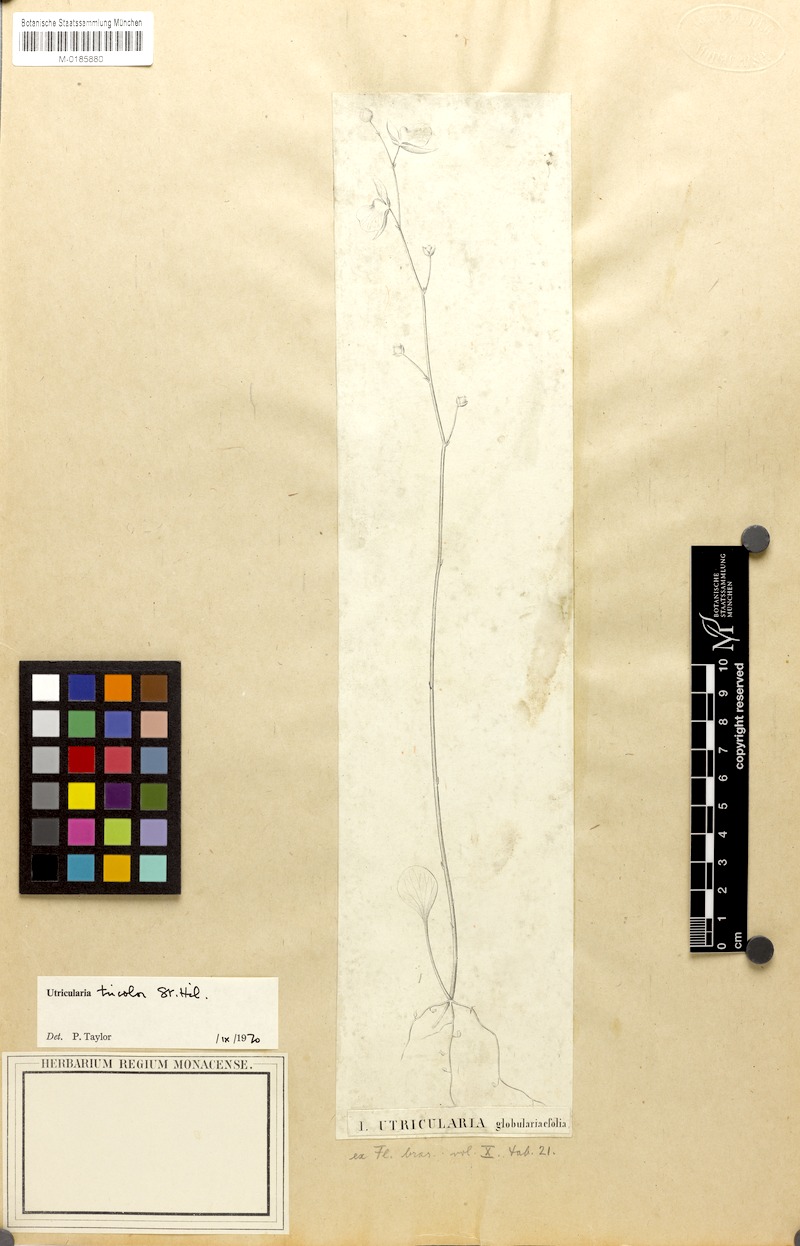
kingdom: Plantae
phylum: Tracheophyta
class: Magnoliopsida
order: Lamiales
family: Lentibulariaceae
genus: Utricularia
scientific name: Utricularia tricolor
